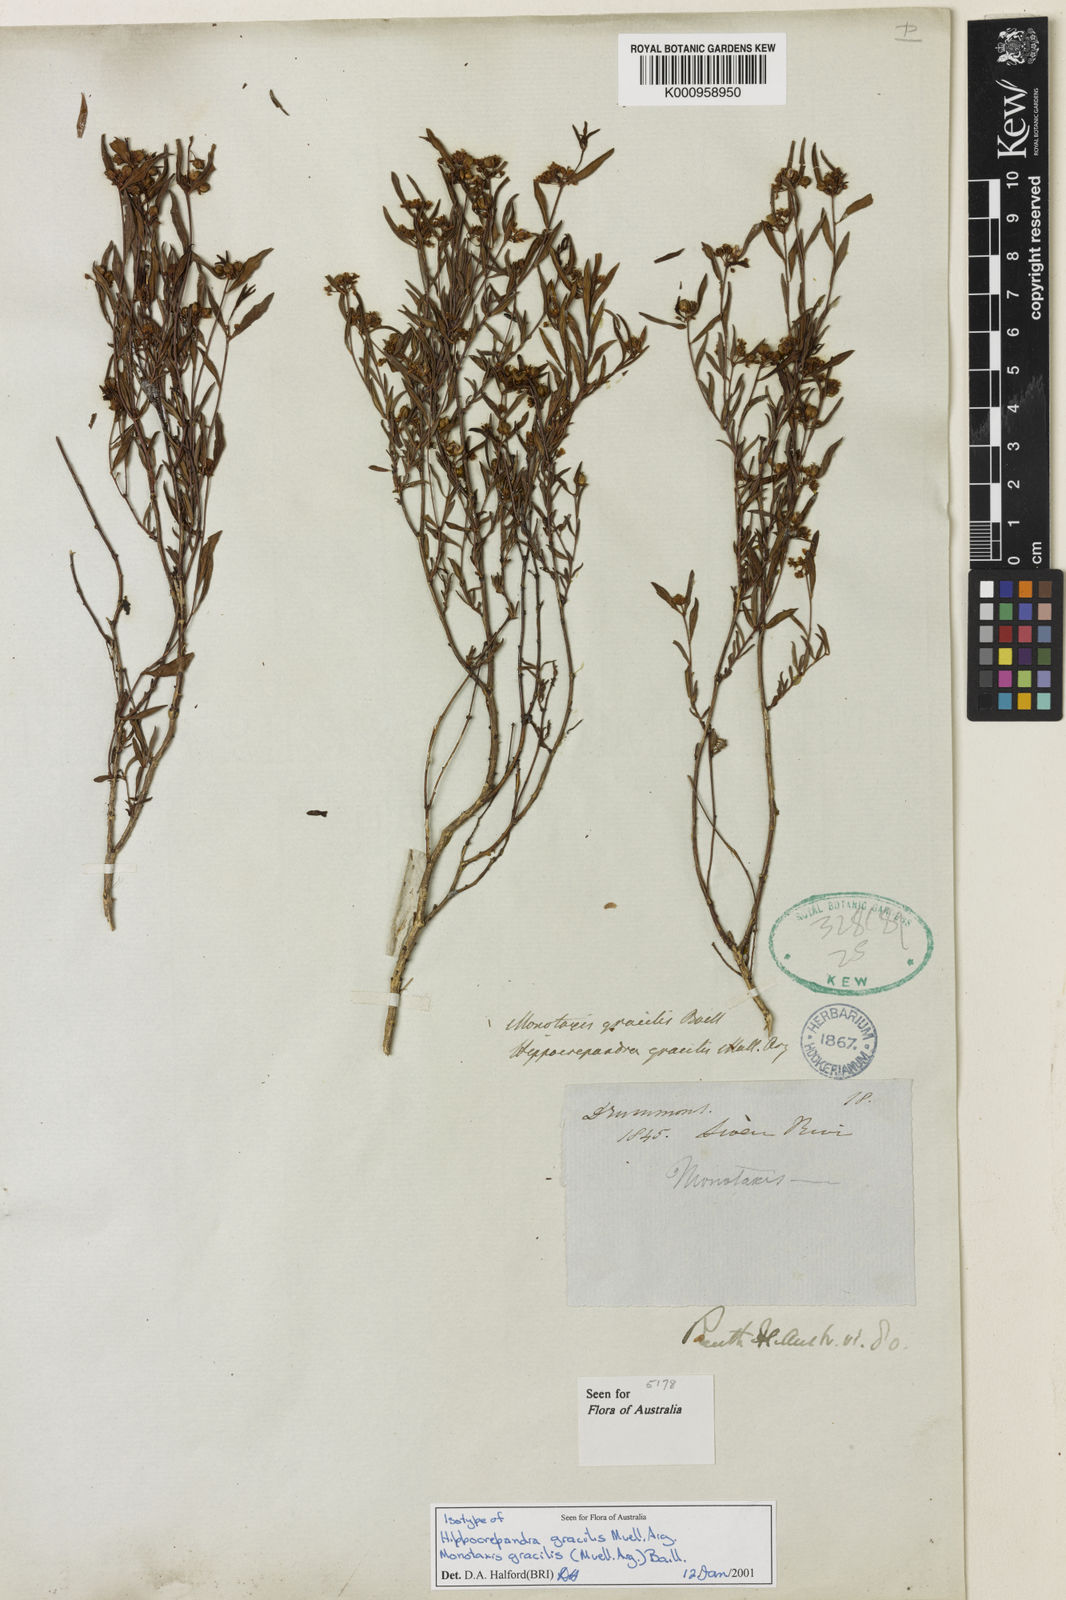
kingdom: Plantae
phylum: Tracheophyta
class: Magnoliopsida
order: Malpighiales
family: Euphorbiaceae
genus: Monotaxis
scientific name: Monotaxis
